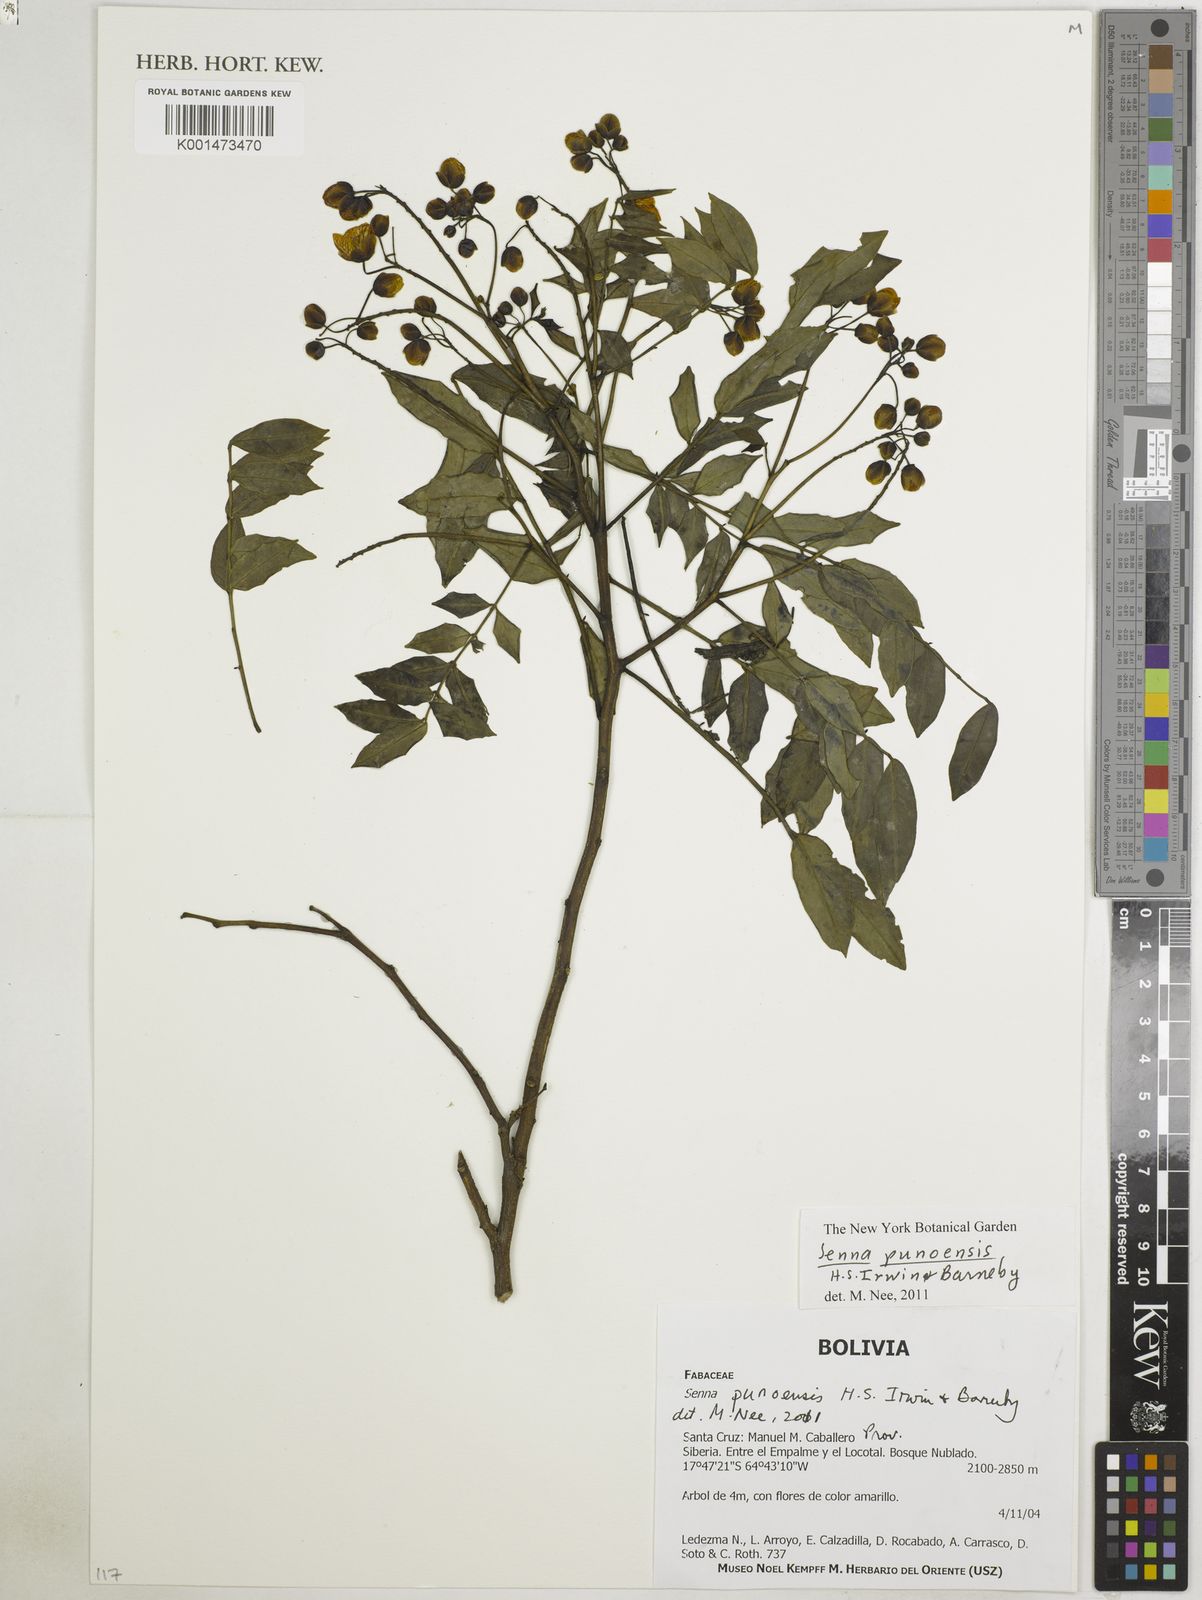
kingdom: Plantae
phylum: Tracheophyta
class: Magnoliopsida
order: Fabales
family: Fabaceae
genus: Senna
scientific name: Senna punoensis
